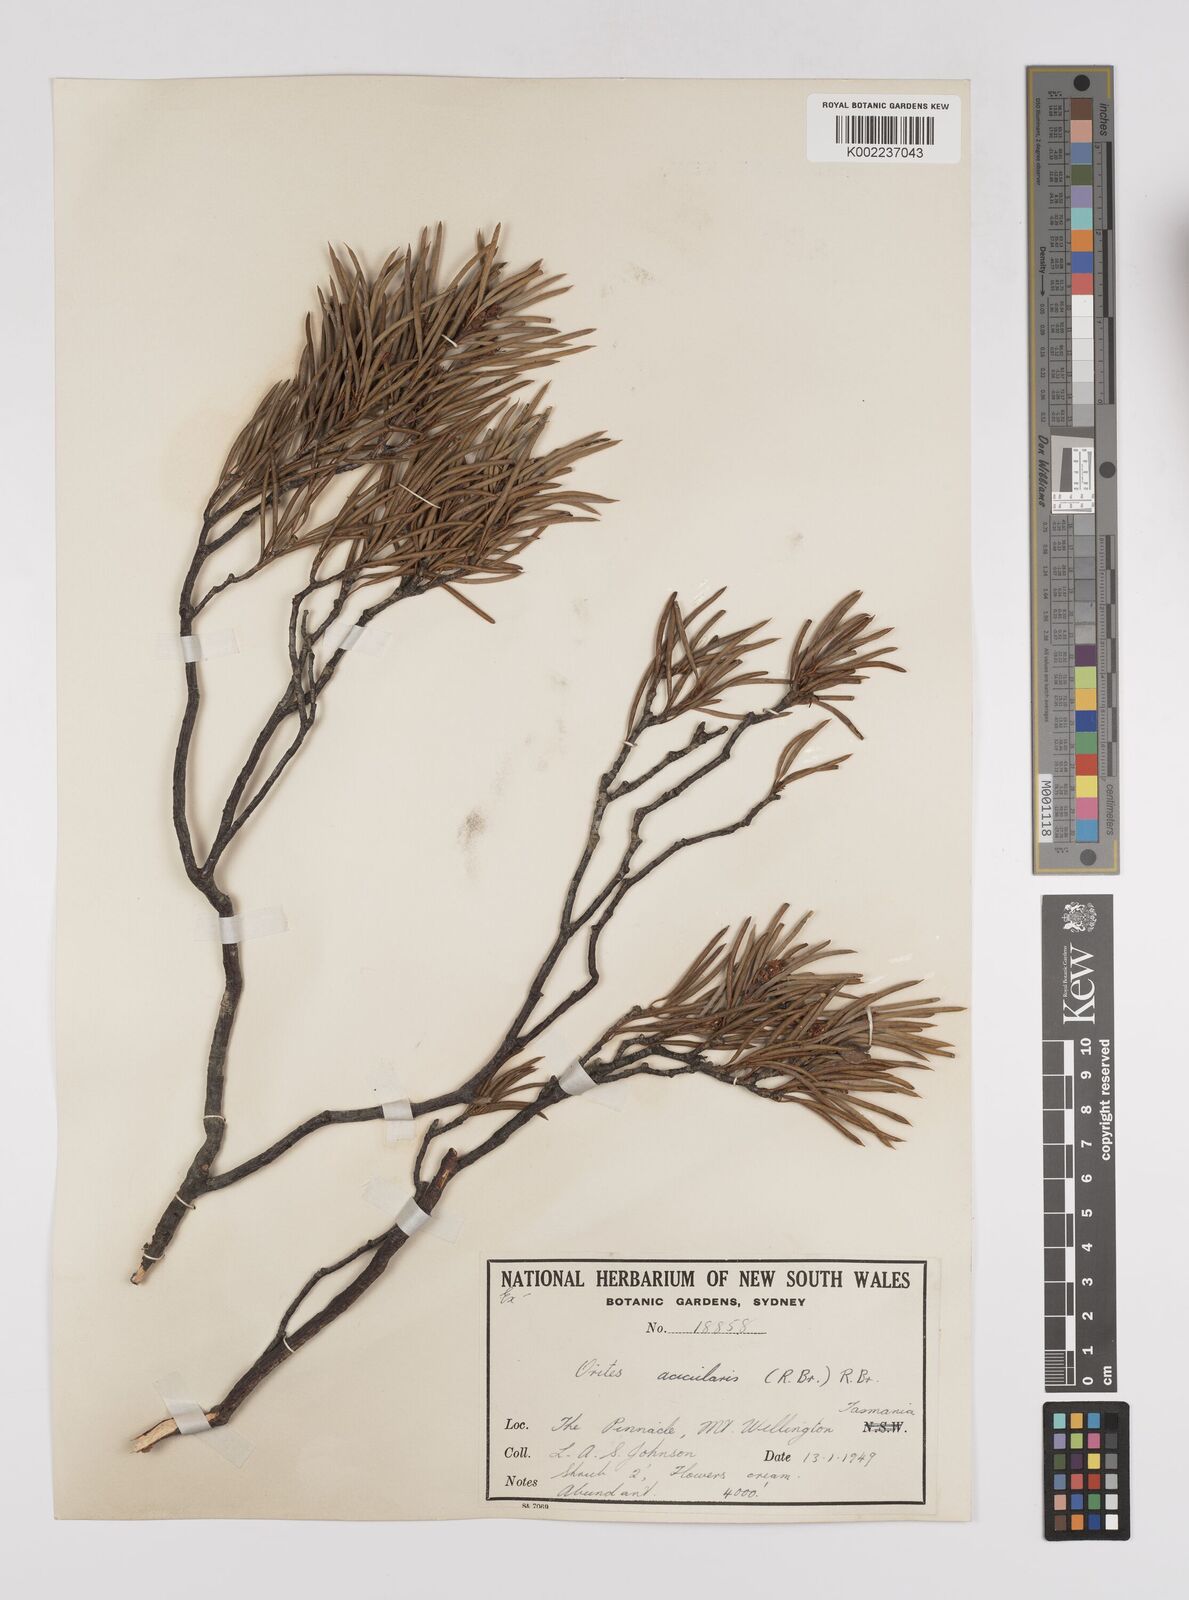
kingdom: Plantae
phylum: Tracheophyta
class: Magnoliopsida
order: Proteales
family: Proteaceae
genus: Orites
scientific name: Orites acicularis
